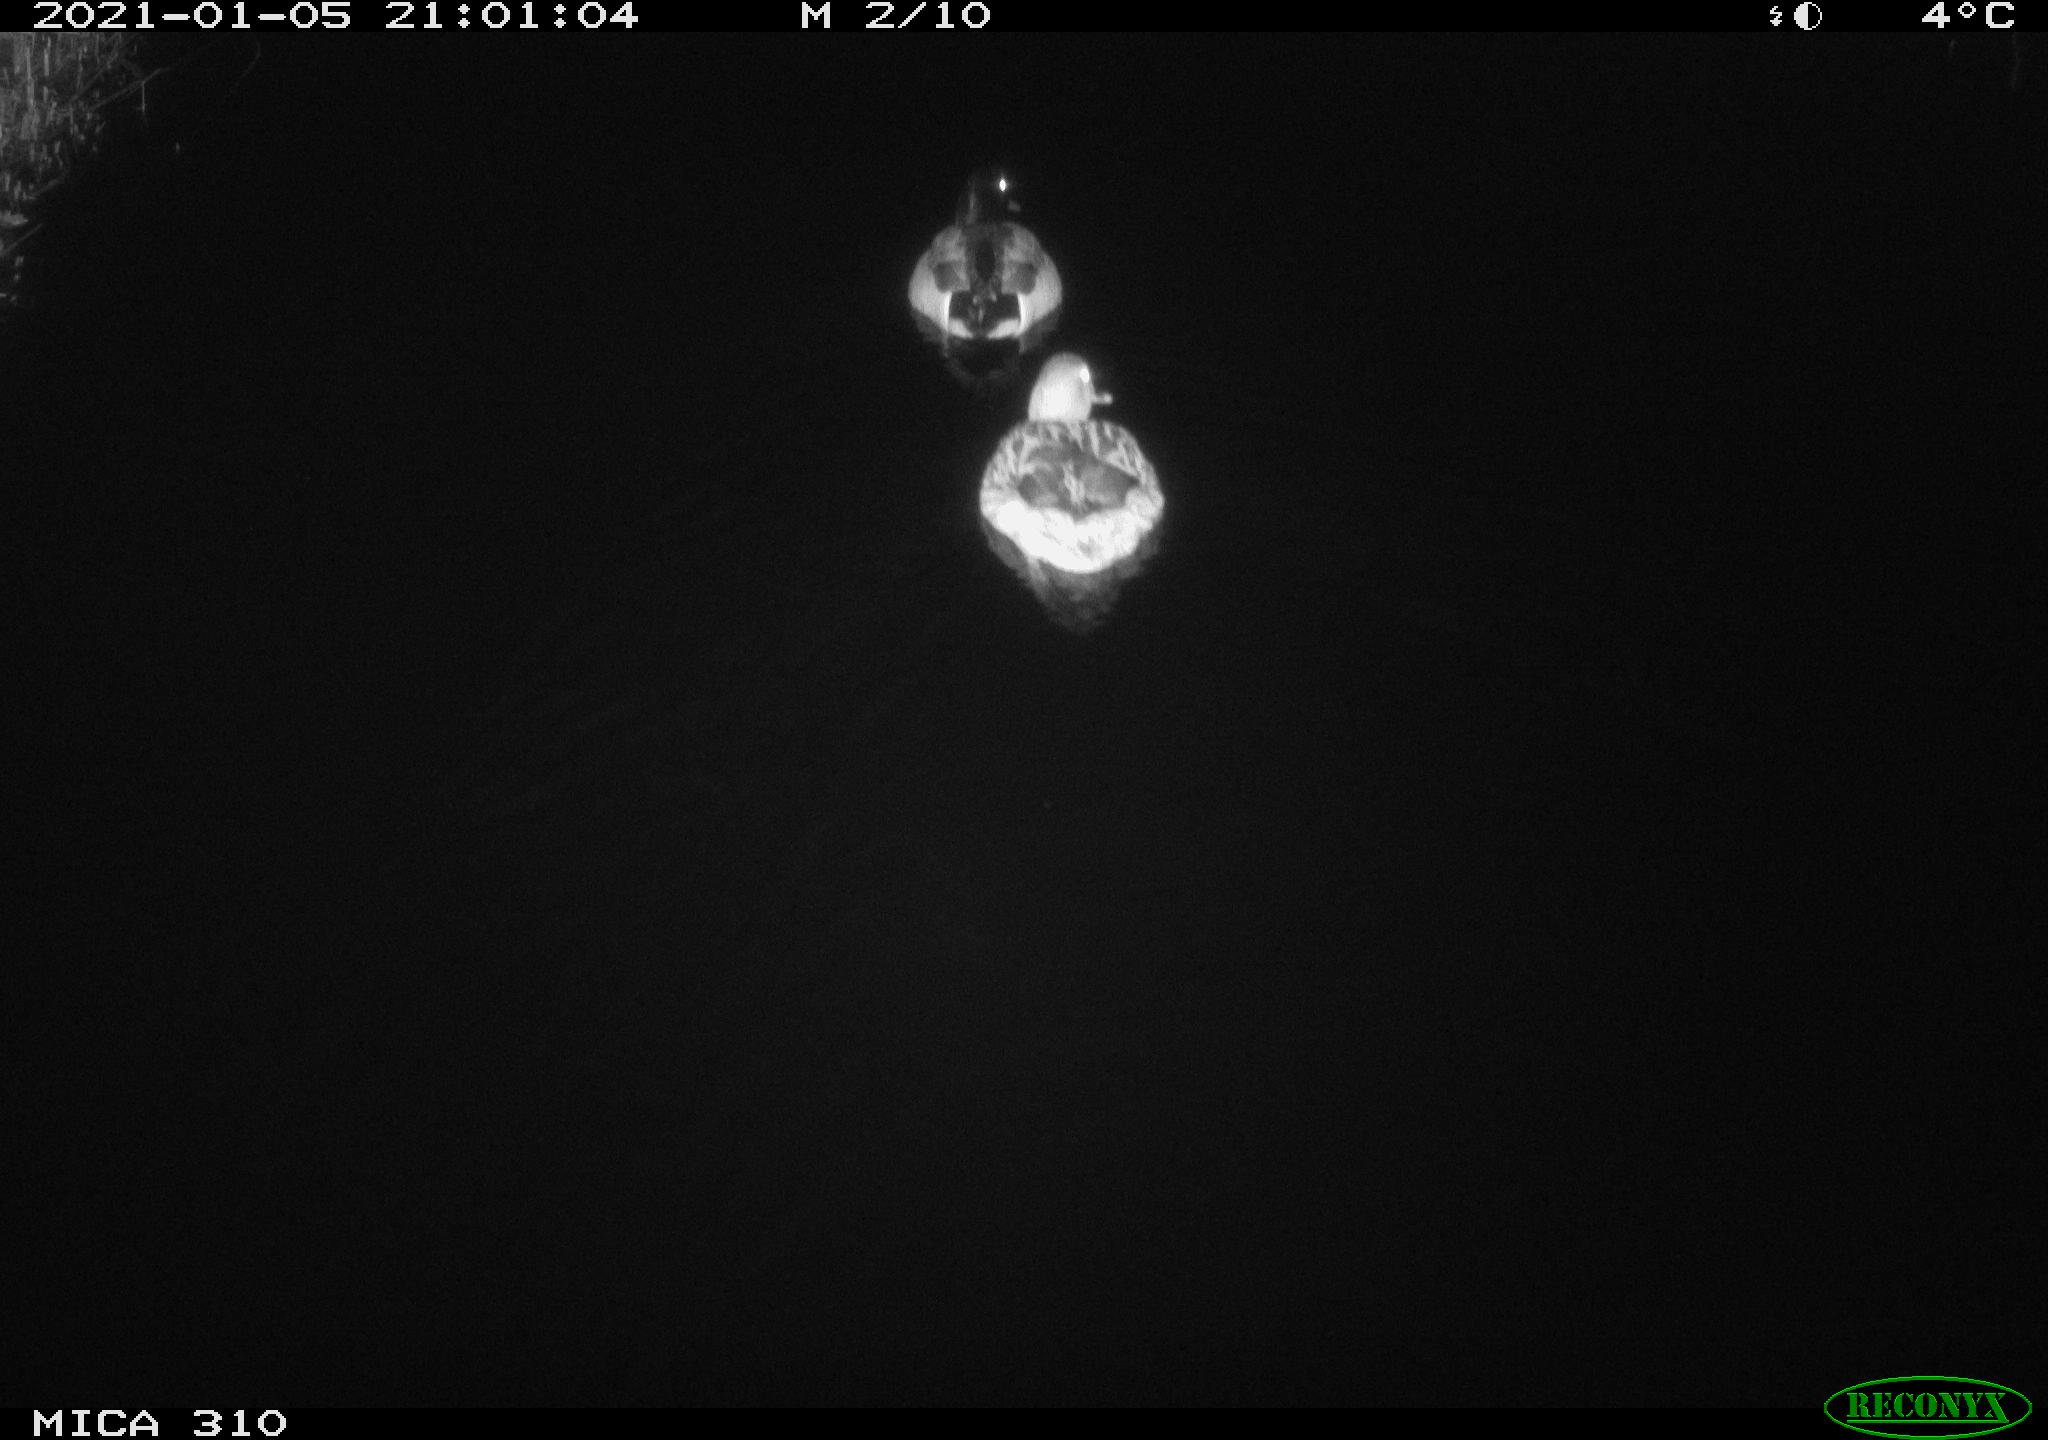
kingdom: Animalia
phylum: Chordata
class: Aves
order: Anseriformes
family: Anatidae
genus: Anas
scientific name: Anas platyrhynchos
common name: Mallard
